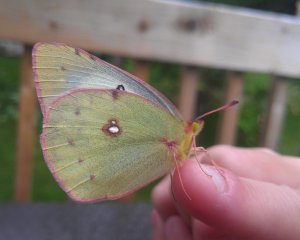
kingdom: Animalia
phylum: Arthropoda
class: Insecta
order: Lepidoptera
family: Pieridae
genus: Colias
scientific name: Colias philodice
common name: Clouded Sulphur
